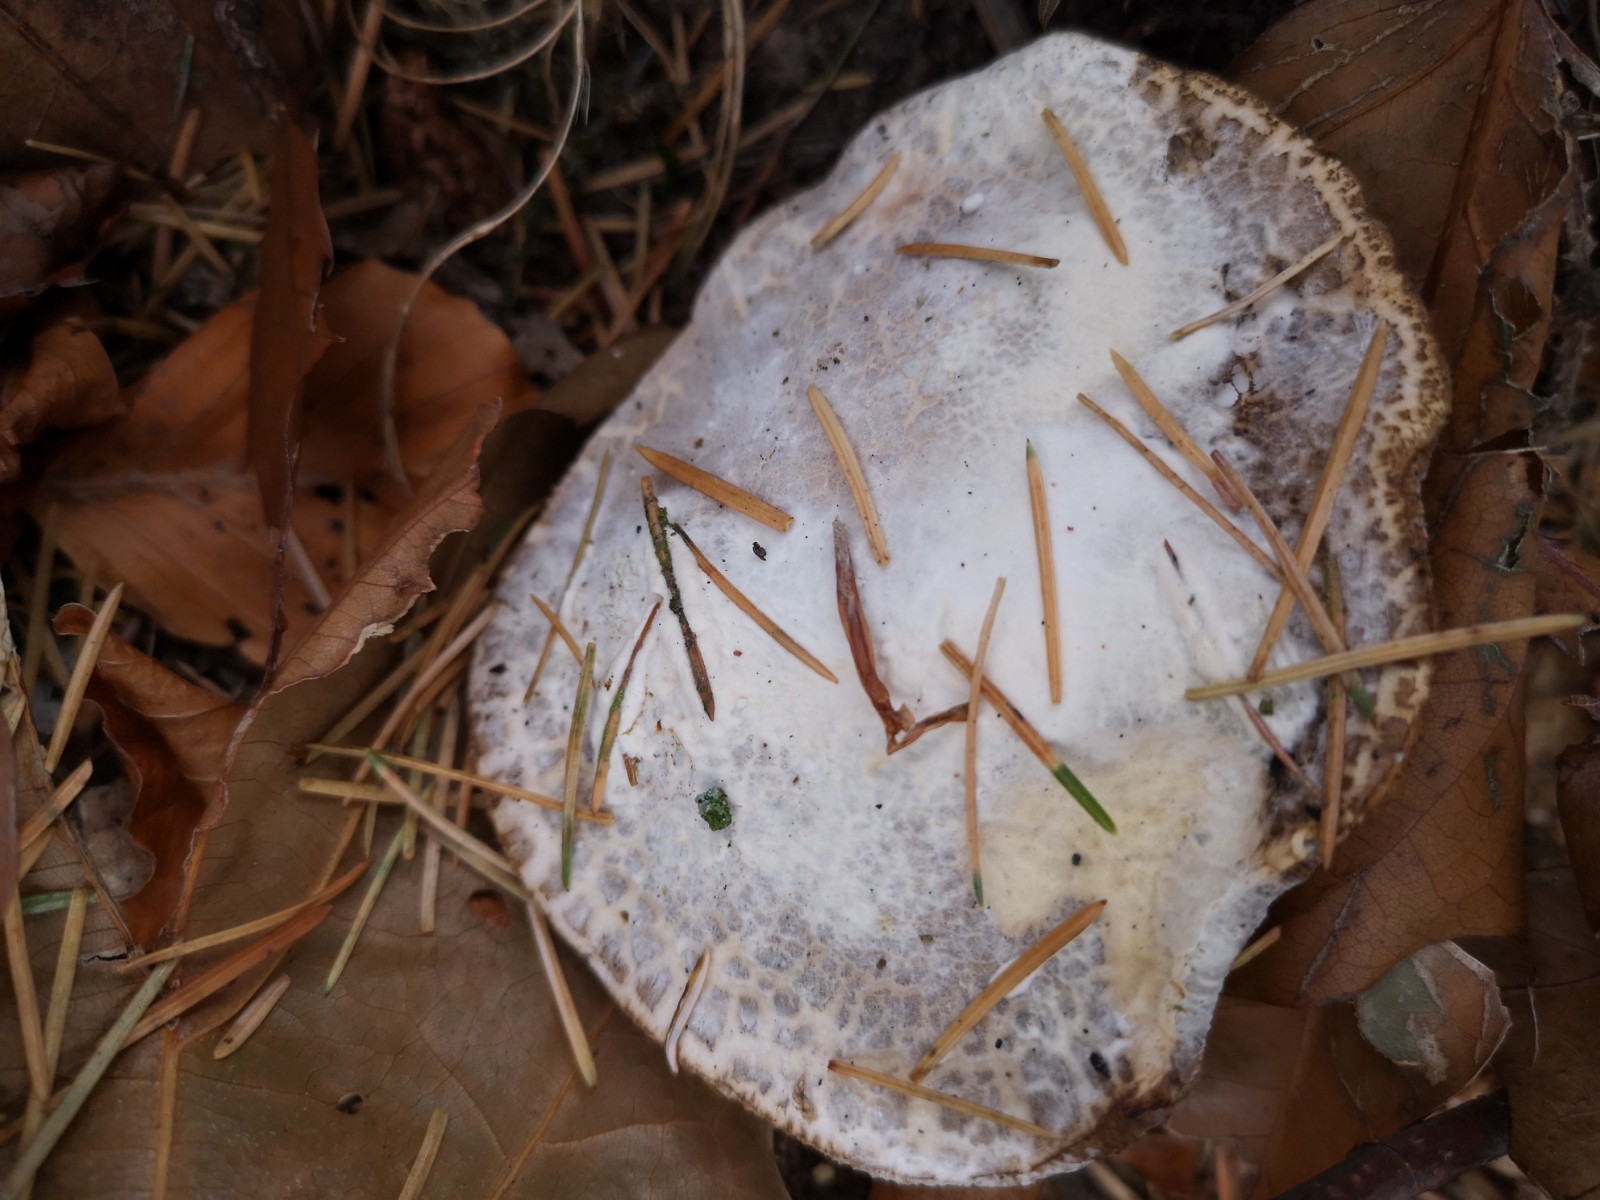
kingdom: Fungi
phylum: Ascomycota
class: Sordariomycetes
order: Hypocreales
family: Hypocreaceae
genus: Hypomyces
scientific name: Hypomyces microspermus
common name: dværgrørhat-snylteskorpe
